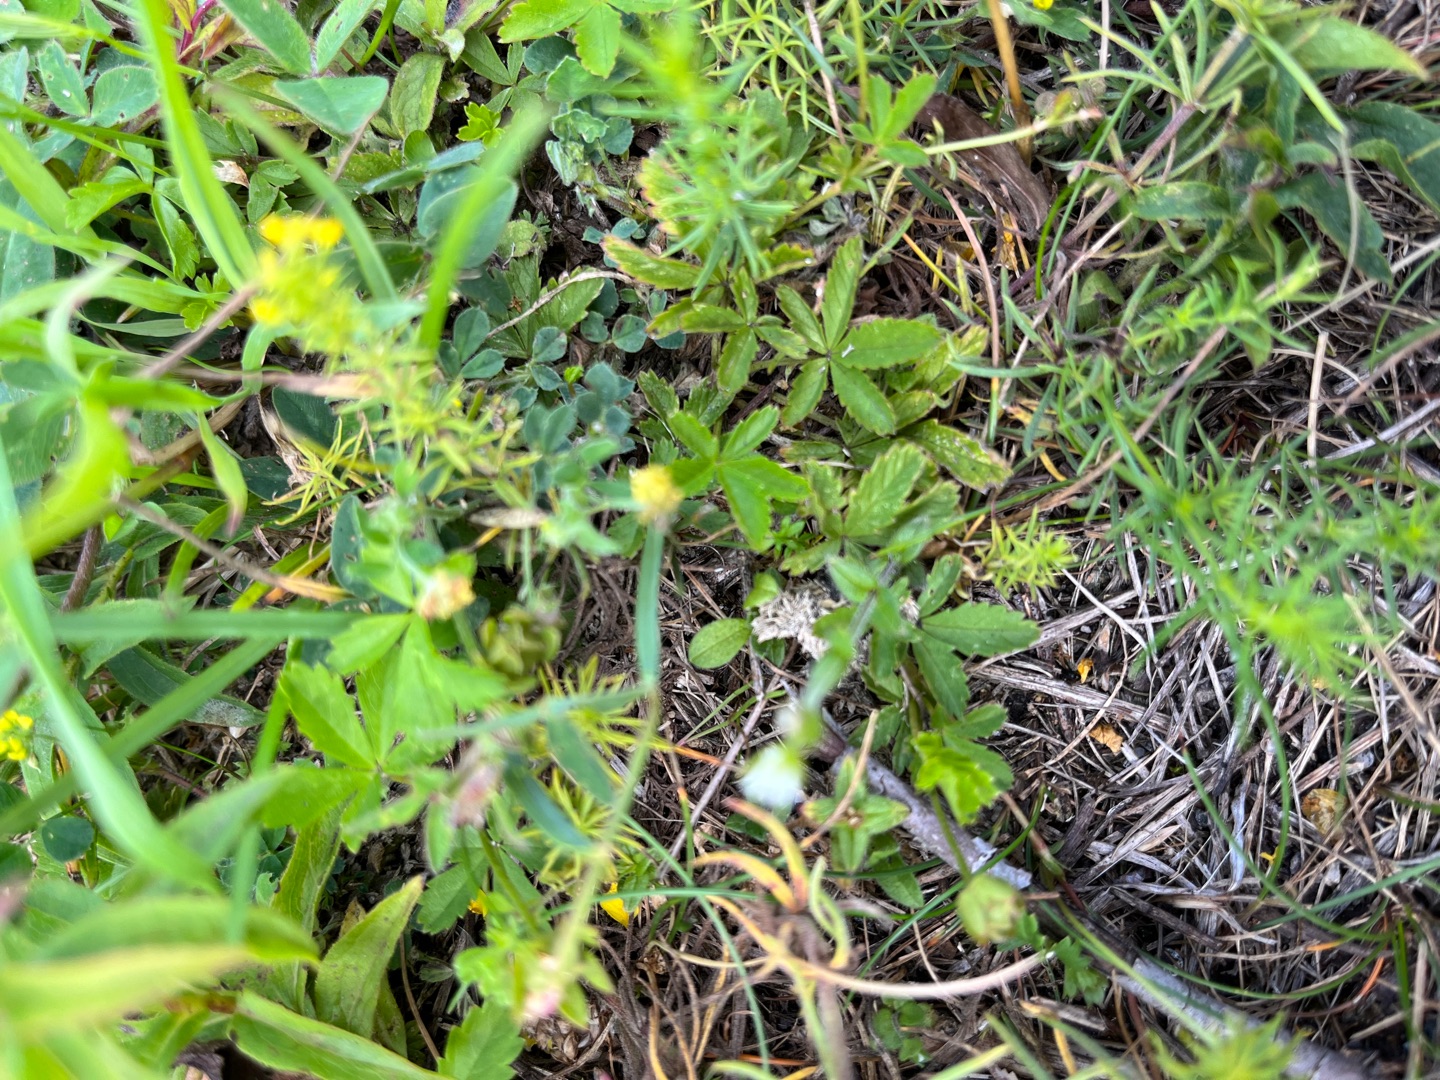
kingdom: Plantae
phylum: Tracheophyta
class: Magnoliopsida
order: Caryophyllales
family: Caryophyllaceae
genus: Cerastium
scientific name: Cerastium fontanum
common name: Almindelig hønsetarm
